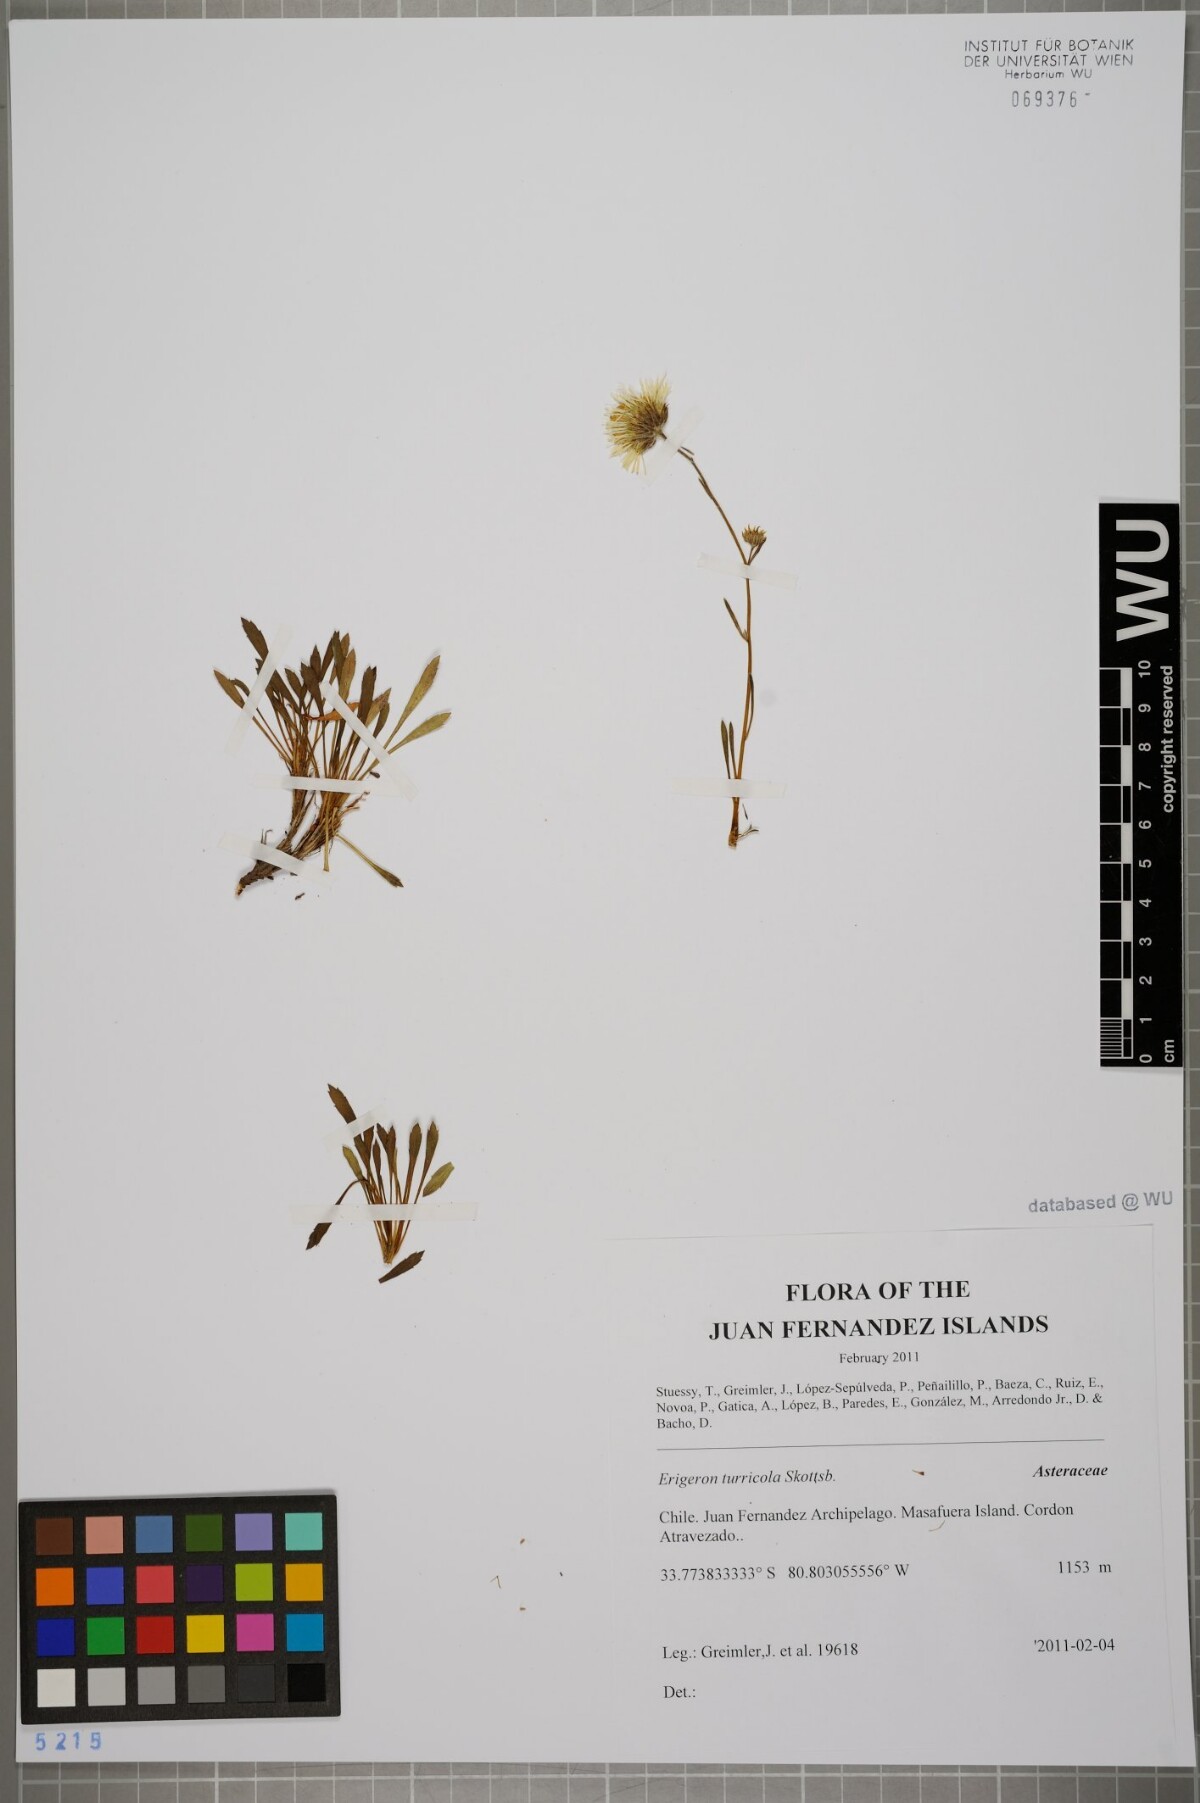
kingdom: Plantae
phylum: Tracheophyta
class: Magnoliopsida
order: Asterales
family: Asteraceae
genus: Erigeron
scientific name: Erigeron ingae
